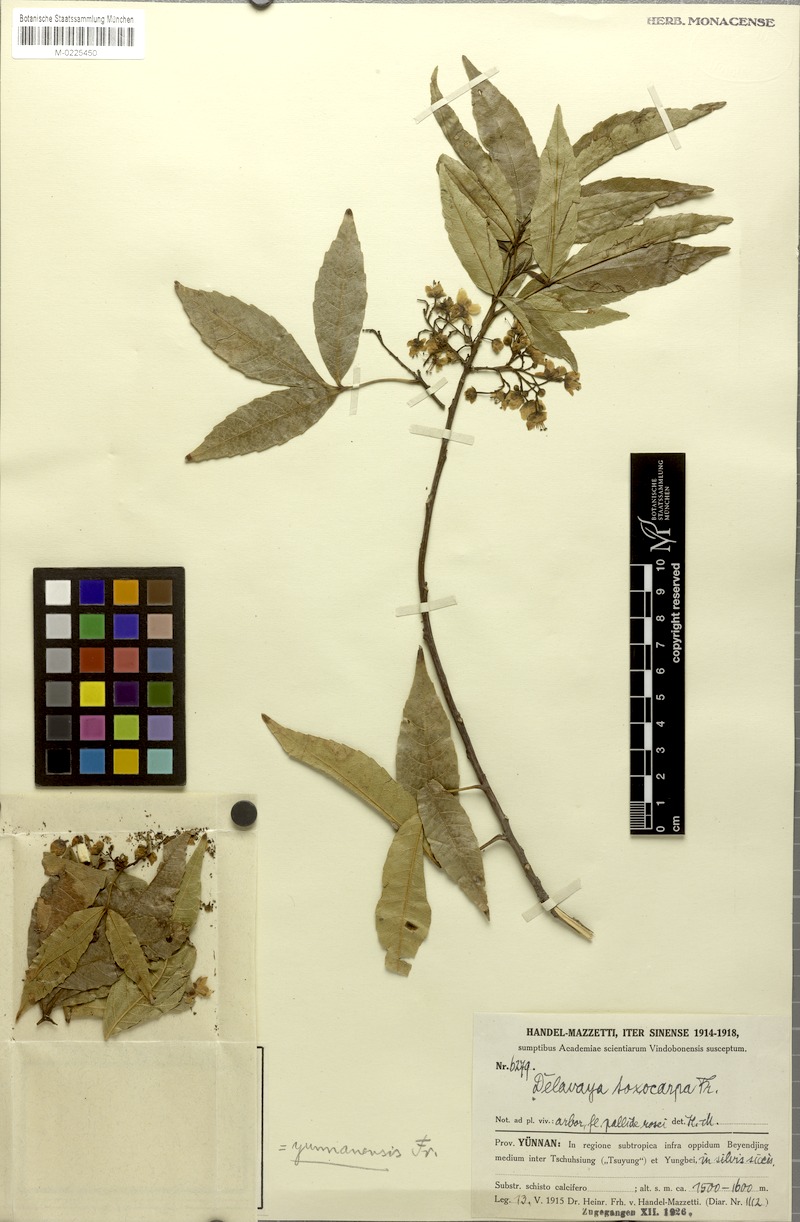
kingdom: Plantae
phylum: Tracheophyta
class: Magnoliopsida
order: Sapindales
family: Sapindaceae
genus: Delavaya
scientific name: Delavaya toxocarpa
